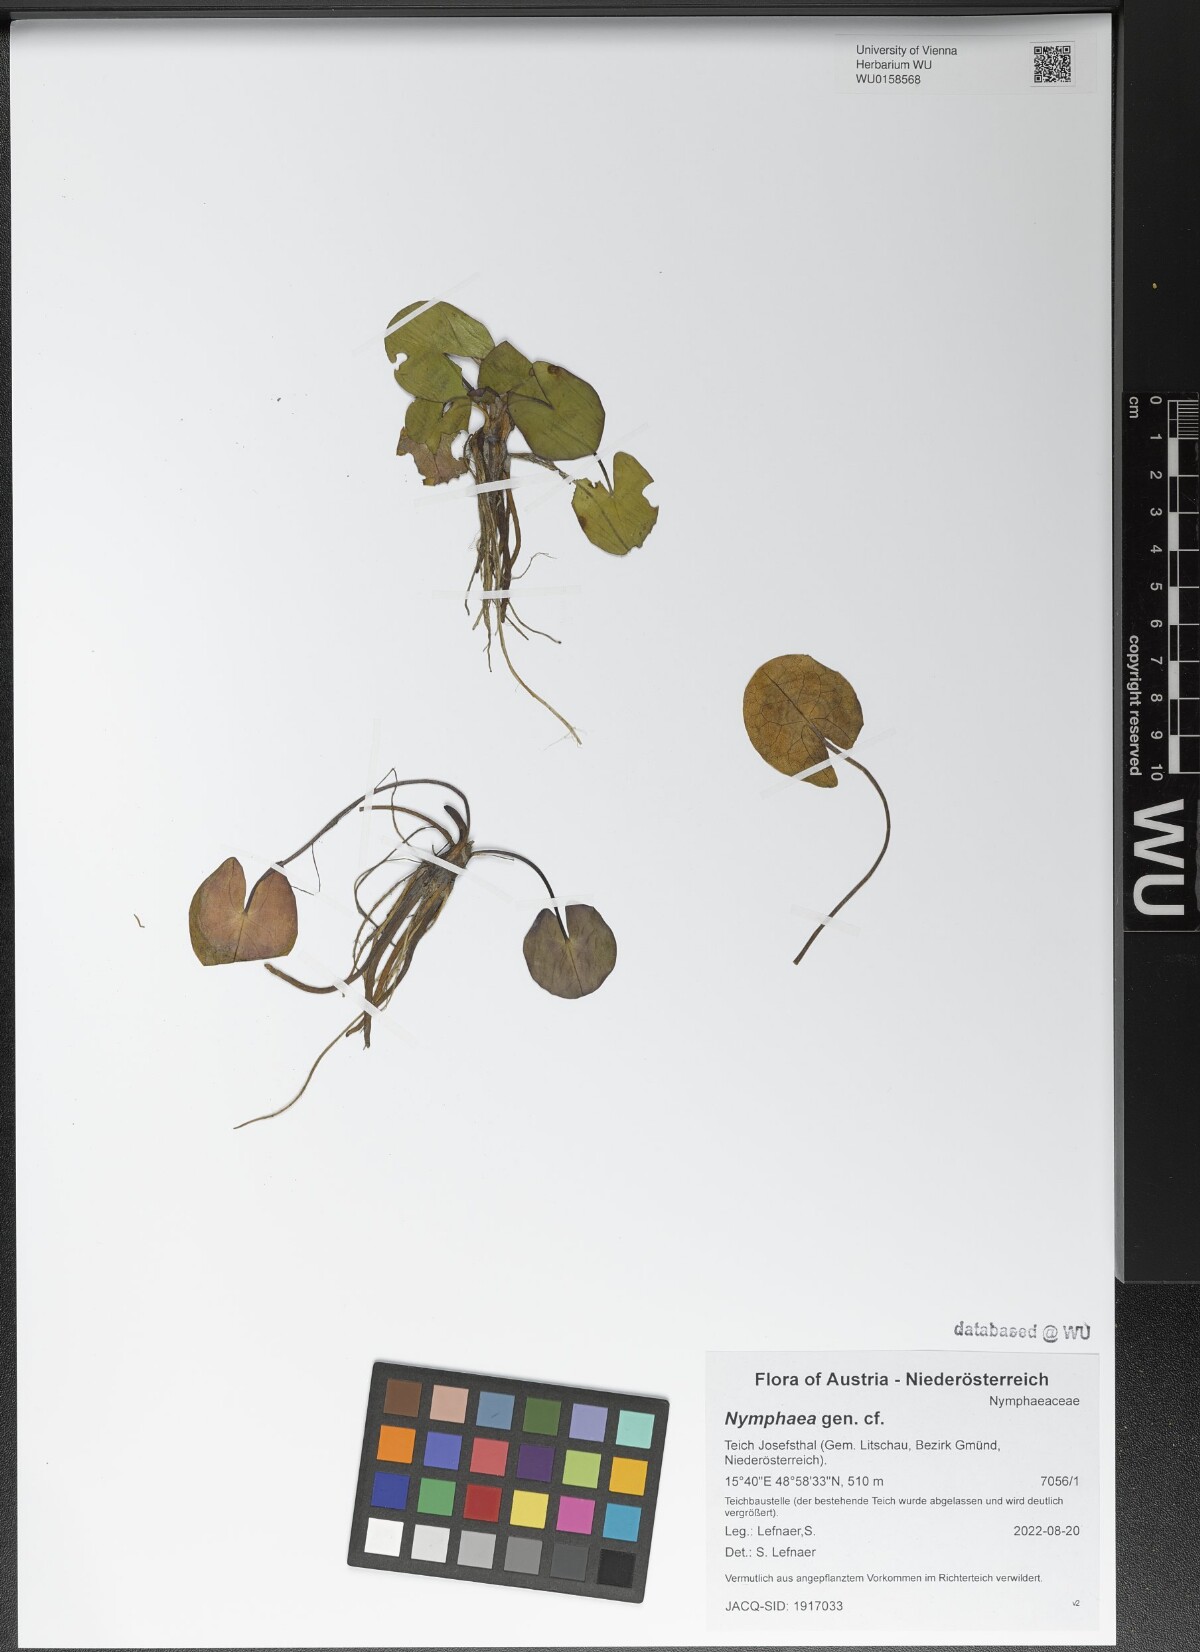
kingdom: Plantae
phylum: Tracheophyta
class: Magnoliopsida
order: Nymphaeales
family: Nymphaeaceae
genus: Nymphaea
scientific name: Nymphaea
